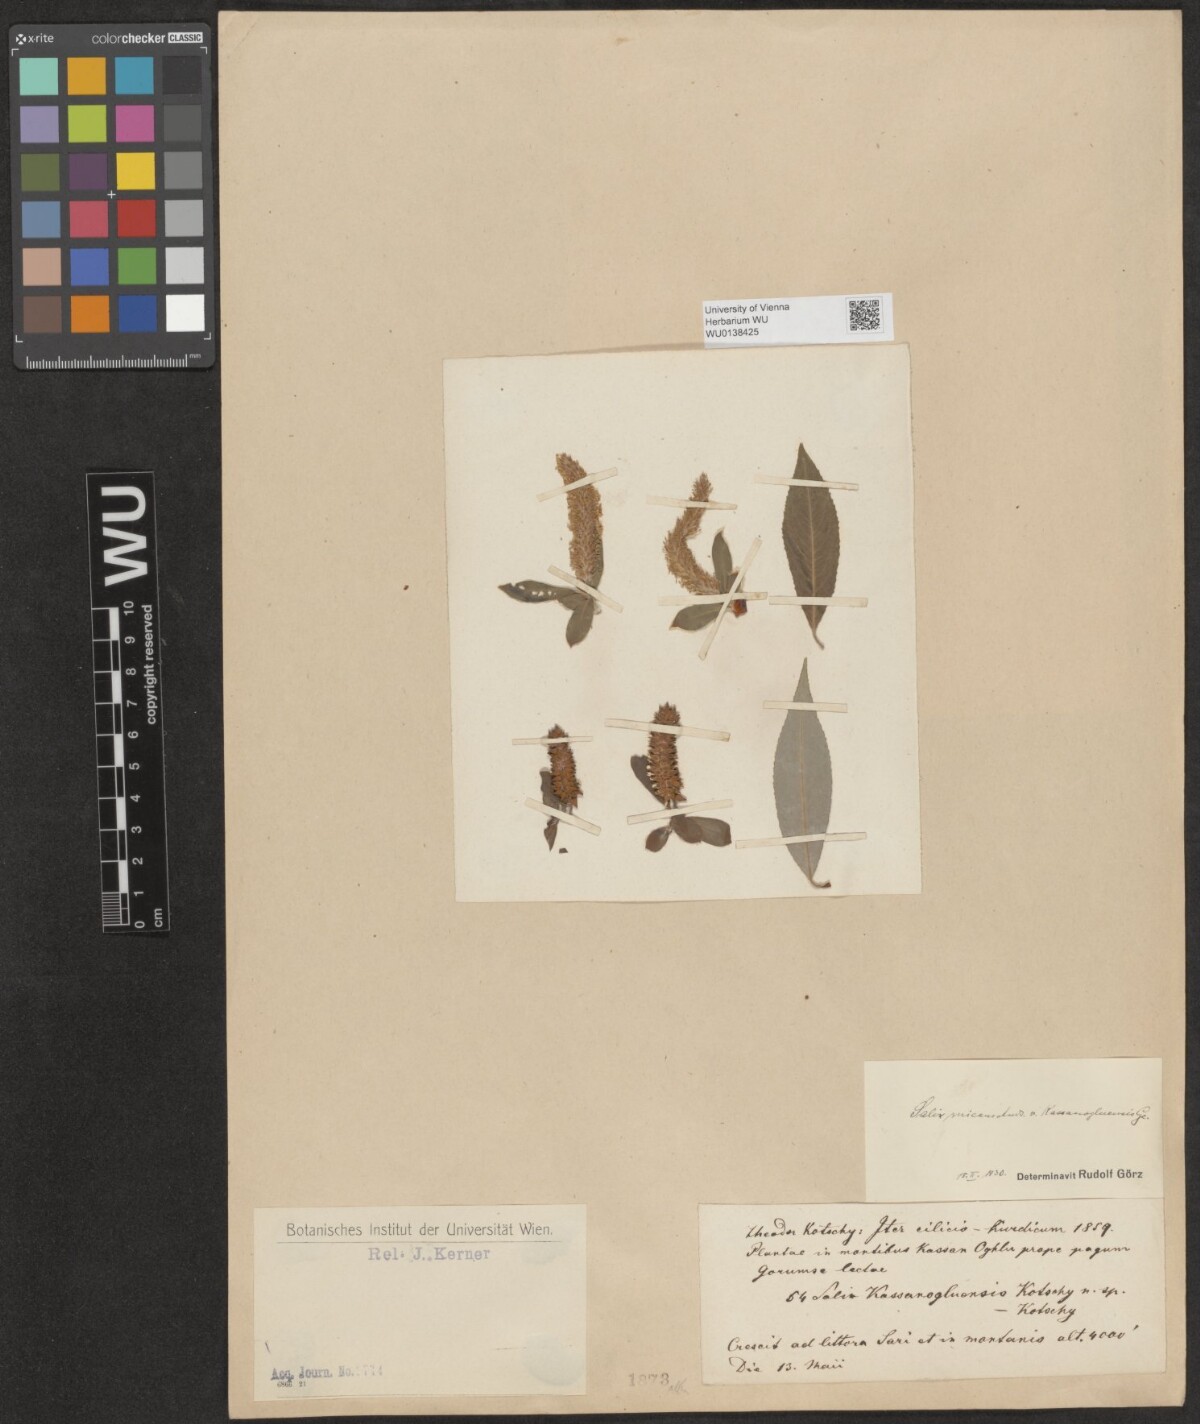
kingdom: Plantae
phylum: Tracheophyta
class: Magnoliopsida
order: Malpighiales
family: Salicaceae
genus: Salix
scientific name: Salix alba
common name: White willow
